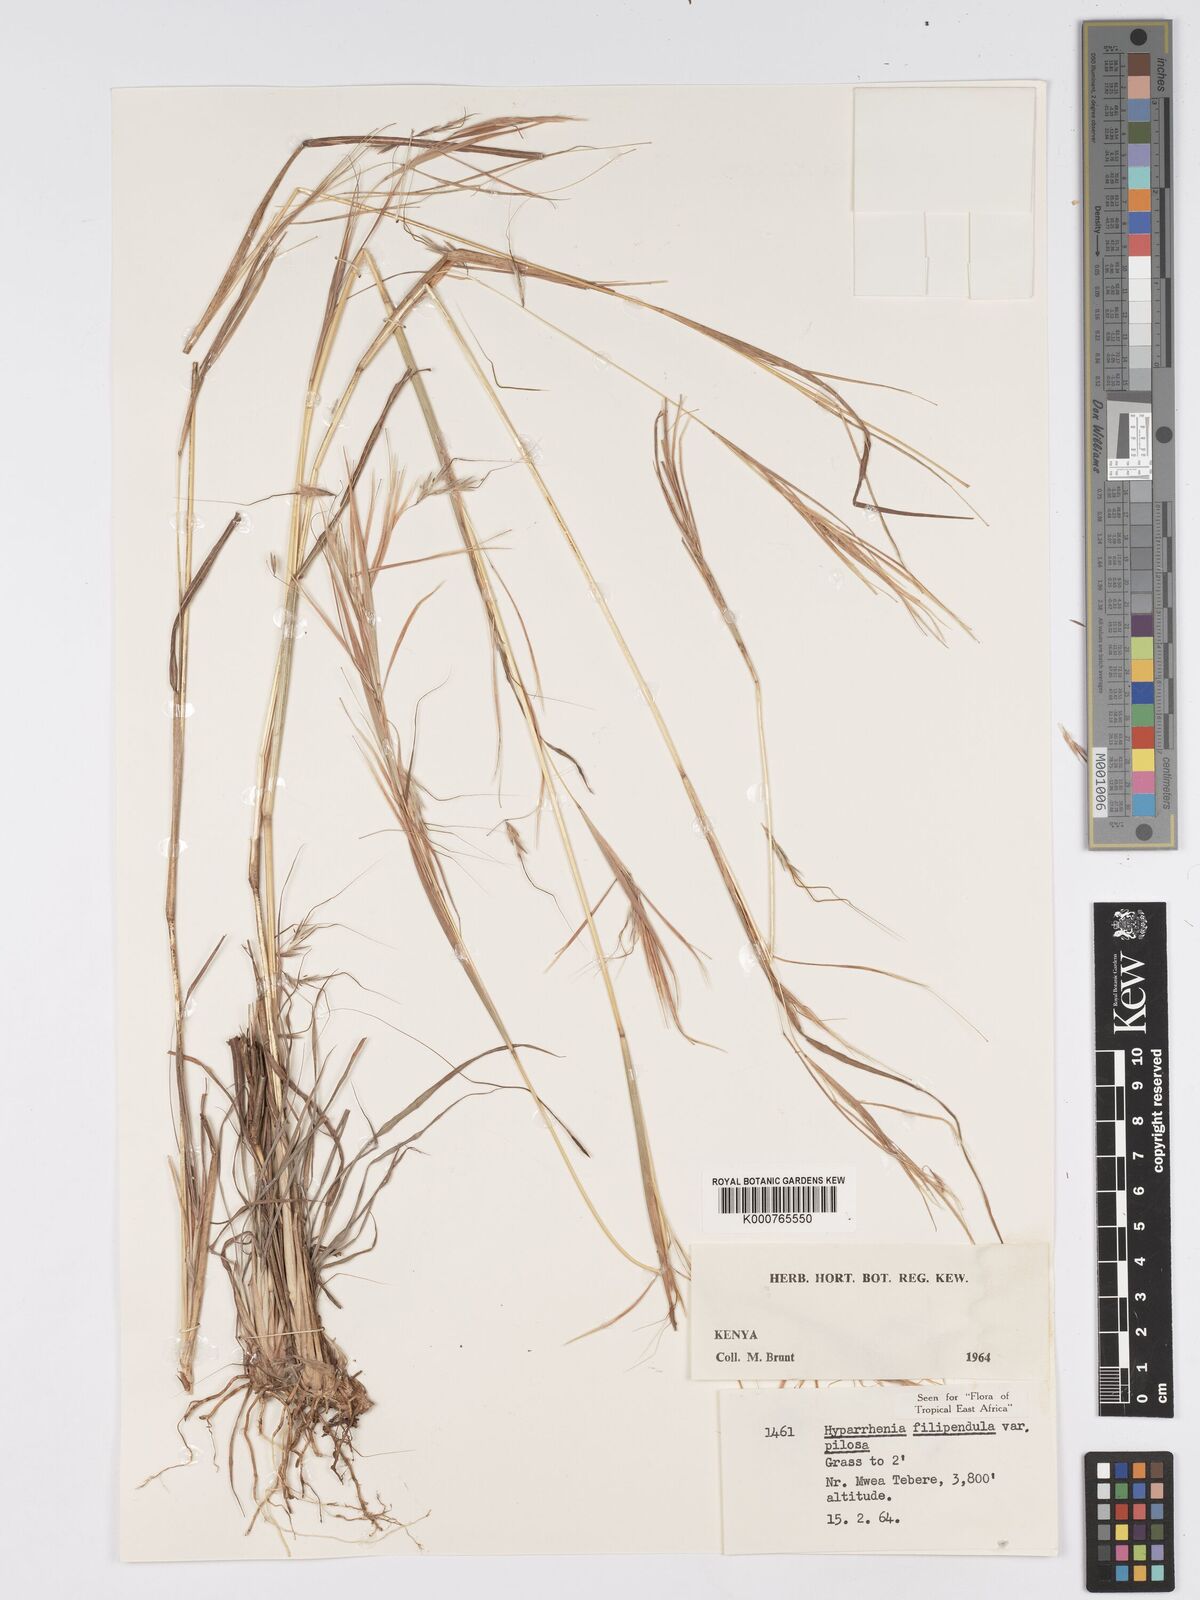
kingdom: Plantae
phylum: Tracheophyta
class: Liliopsida
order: Poales
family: Poaceae
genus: Hyparrhenia
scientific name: Hyparrhenia filipendula
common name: Tambookie grass
